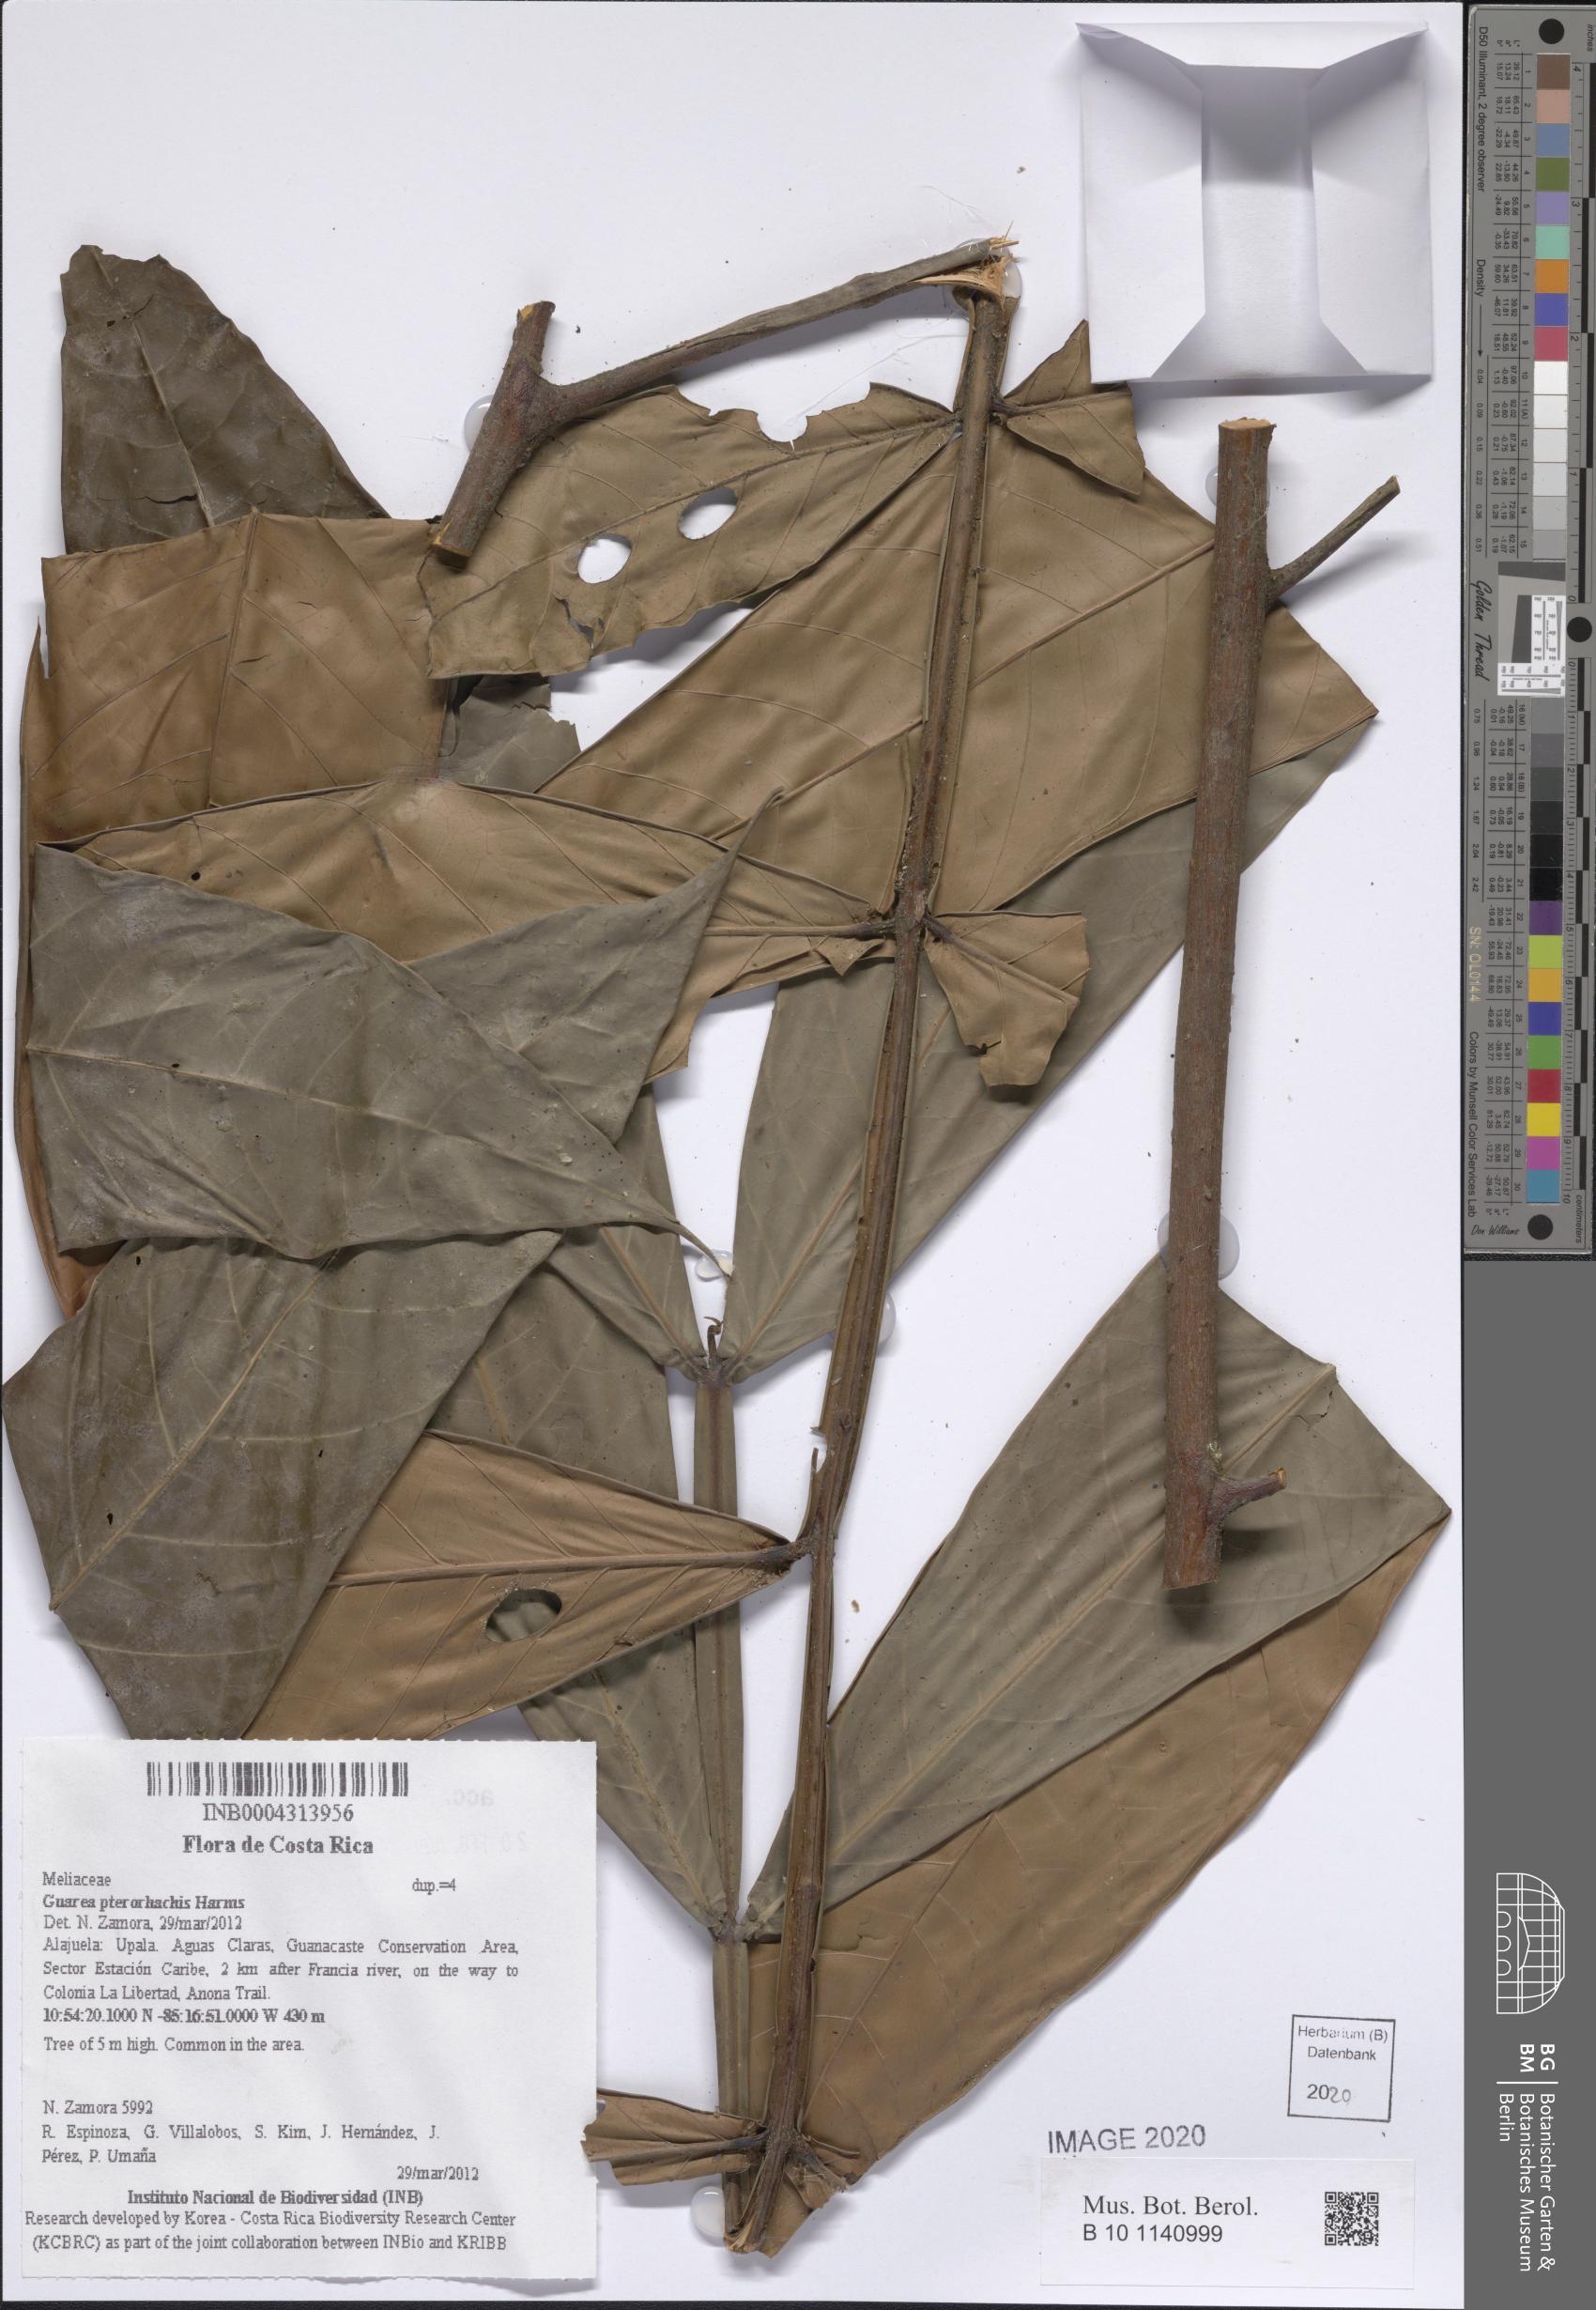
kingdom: Plantae
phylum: Tracheophyta
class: Magnoliopsida
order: Sapindales
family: Meliaceae
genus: Guarea
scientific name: Guarea pterorhachis
